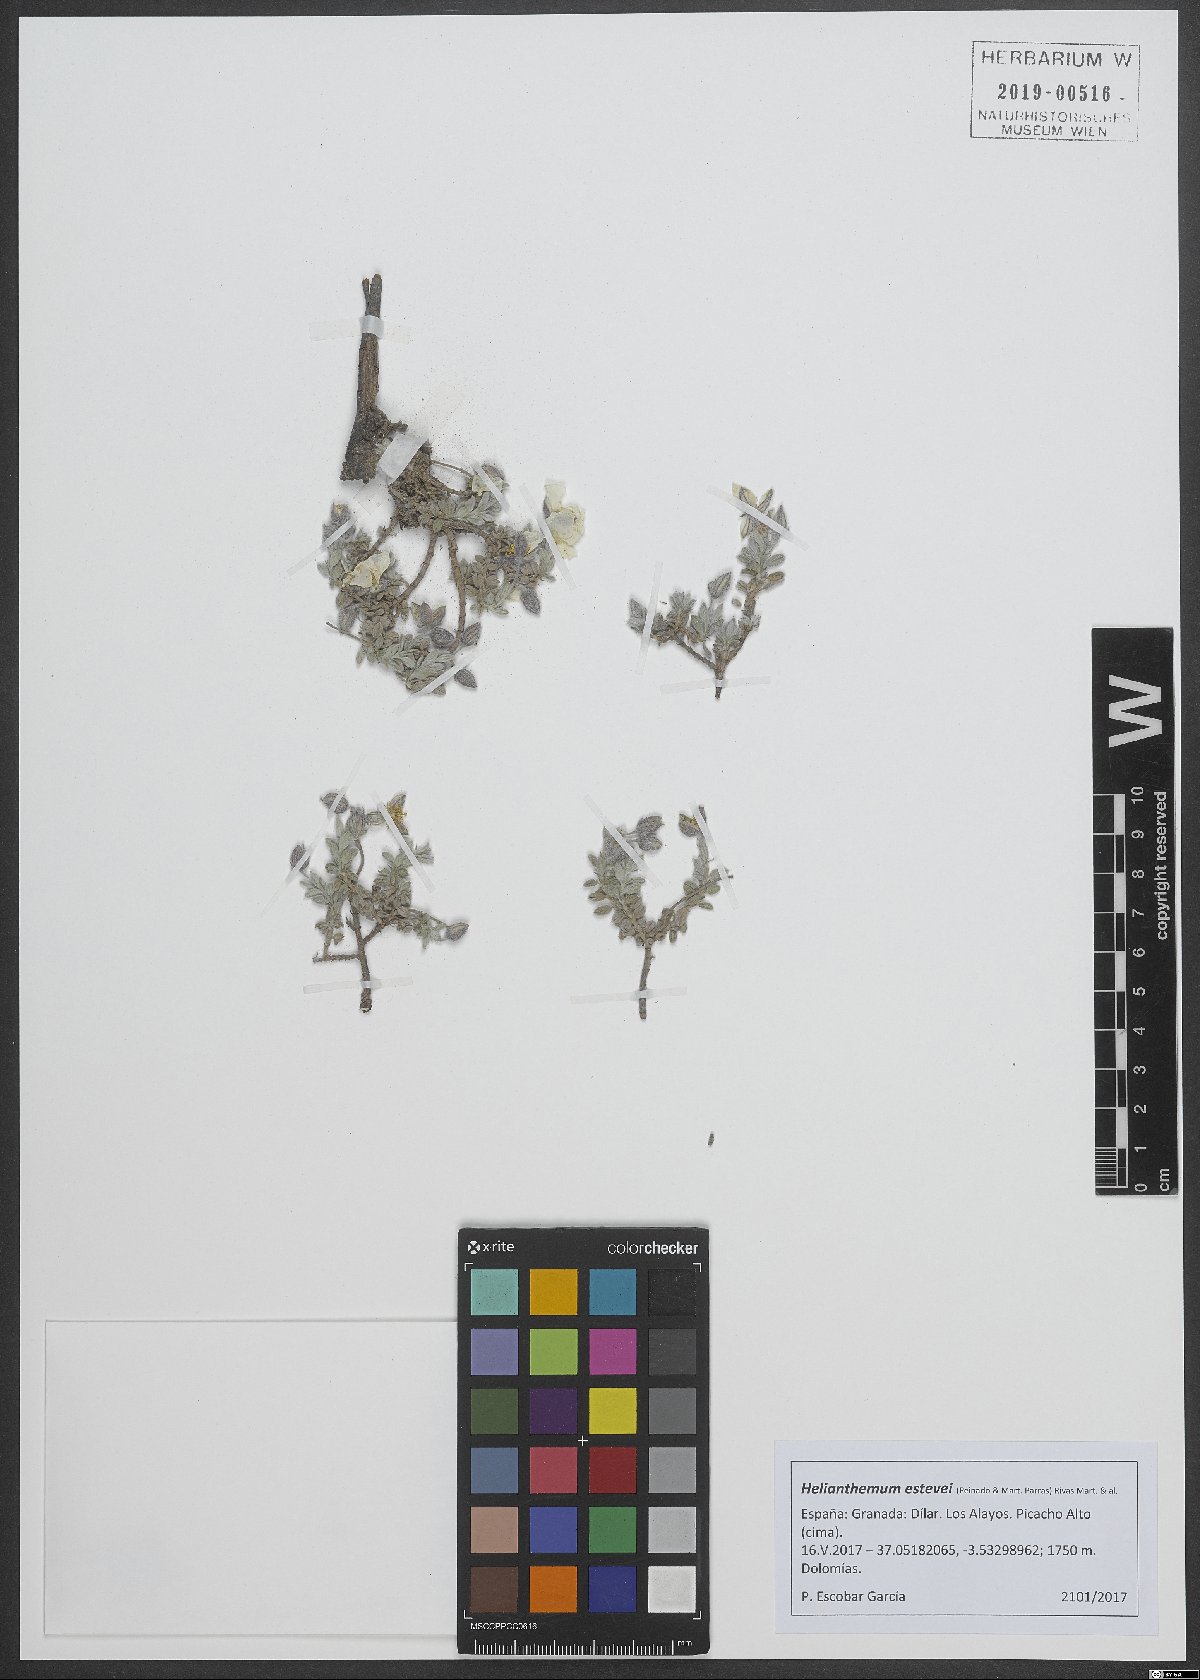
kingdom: Plantae
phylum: Tracheophyta
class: Magnoliopsida
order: Malvales
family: Cistaceae
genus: Helianthemum
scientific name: Helianthemum apenninum
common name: White rock-rose
